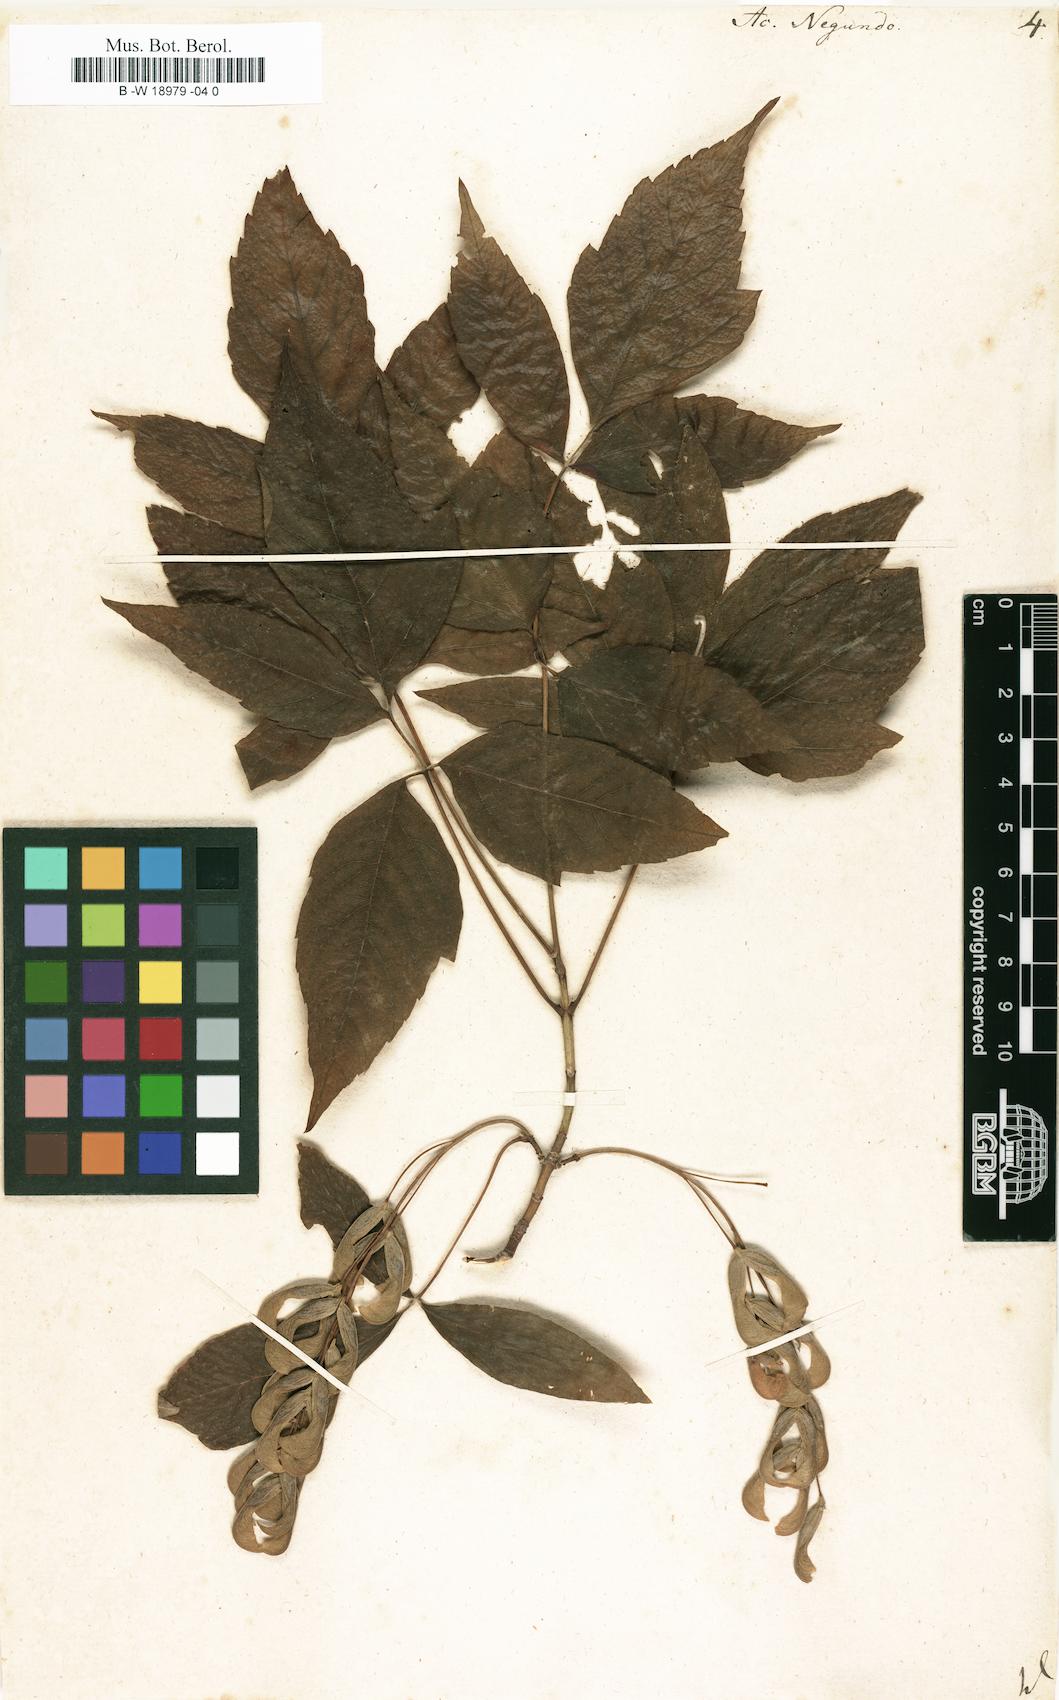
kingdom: Plantae
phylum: Tracheophyta
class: Magnoliopsida
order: Sapindales
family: Sapindaceae
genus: Acer
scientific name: Acer negundo
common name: Ashleaf maple
